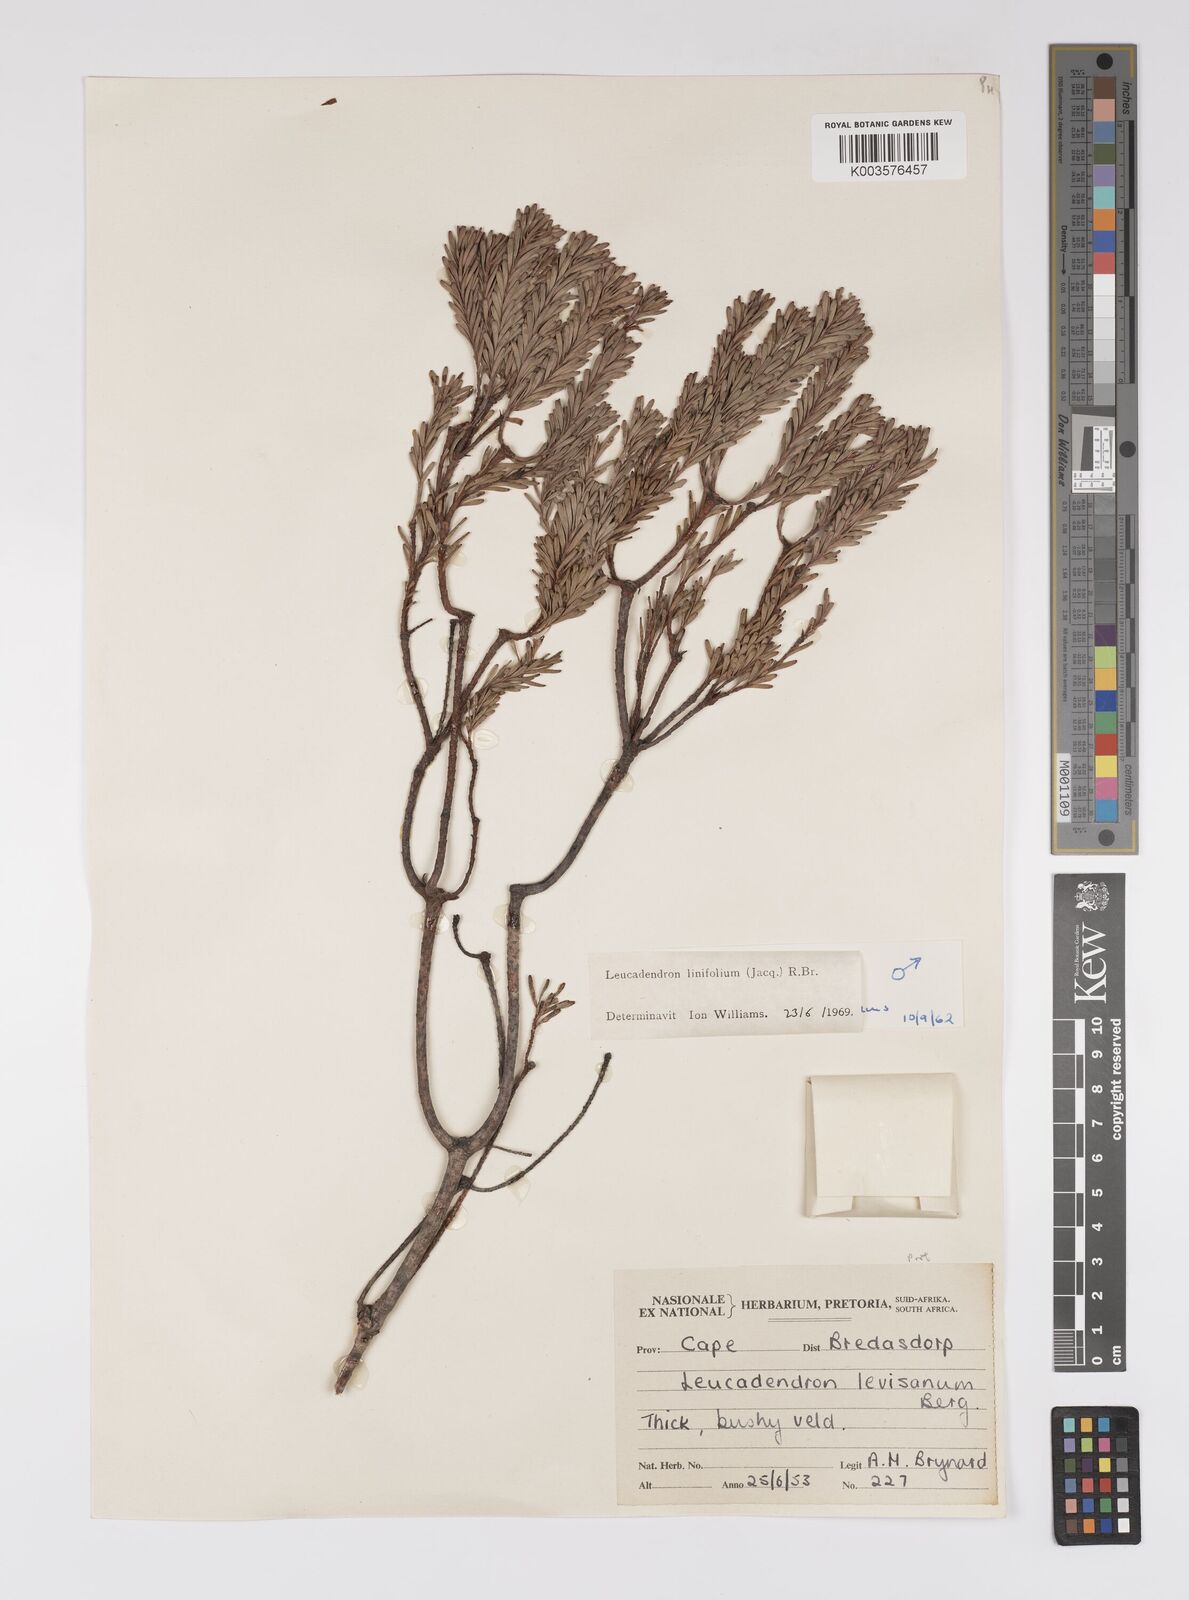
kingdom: Plantae
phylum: Tracheophyta
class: Magnoliopsida
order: Proteales
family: Proteaceae
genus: Leucadendron
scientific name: Leucadendron linifolium
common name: Line-leaf conebush
